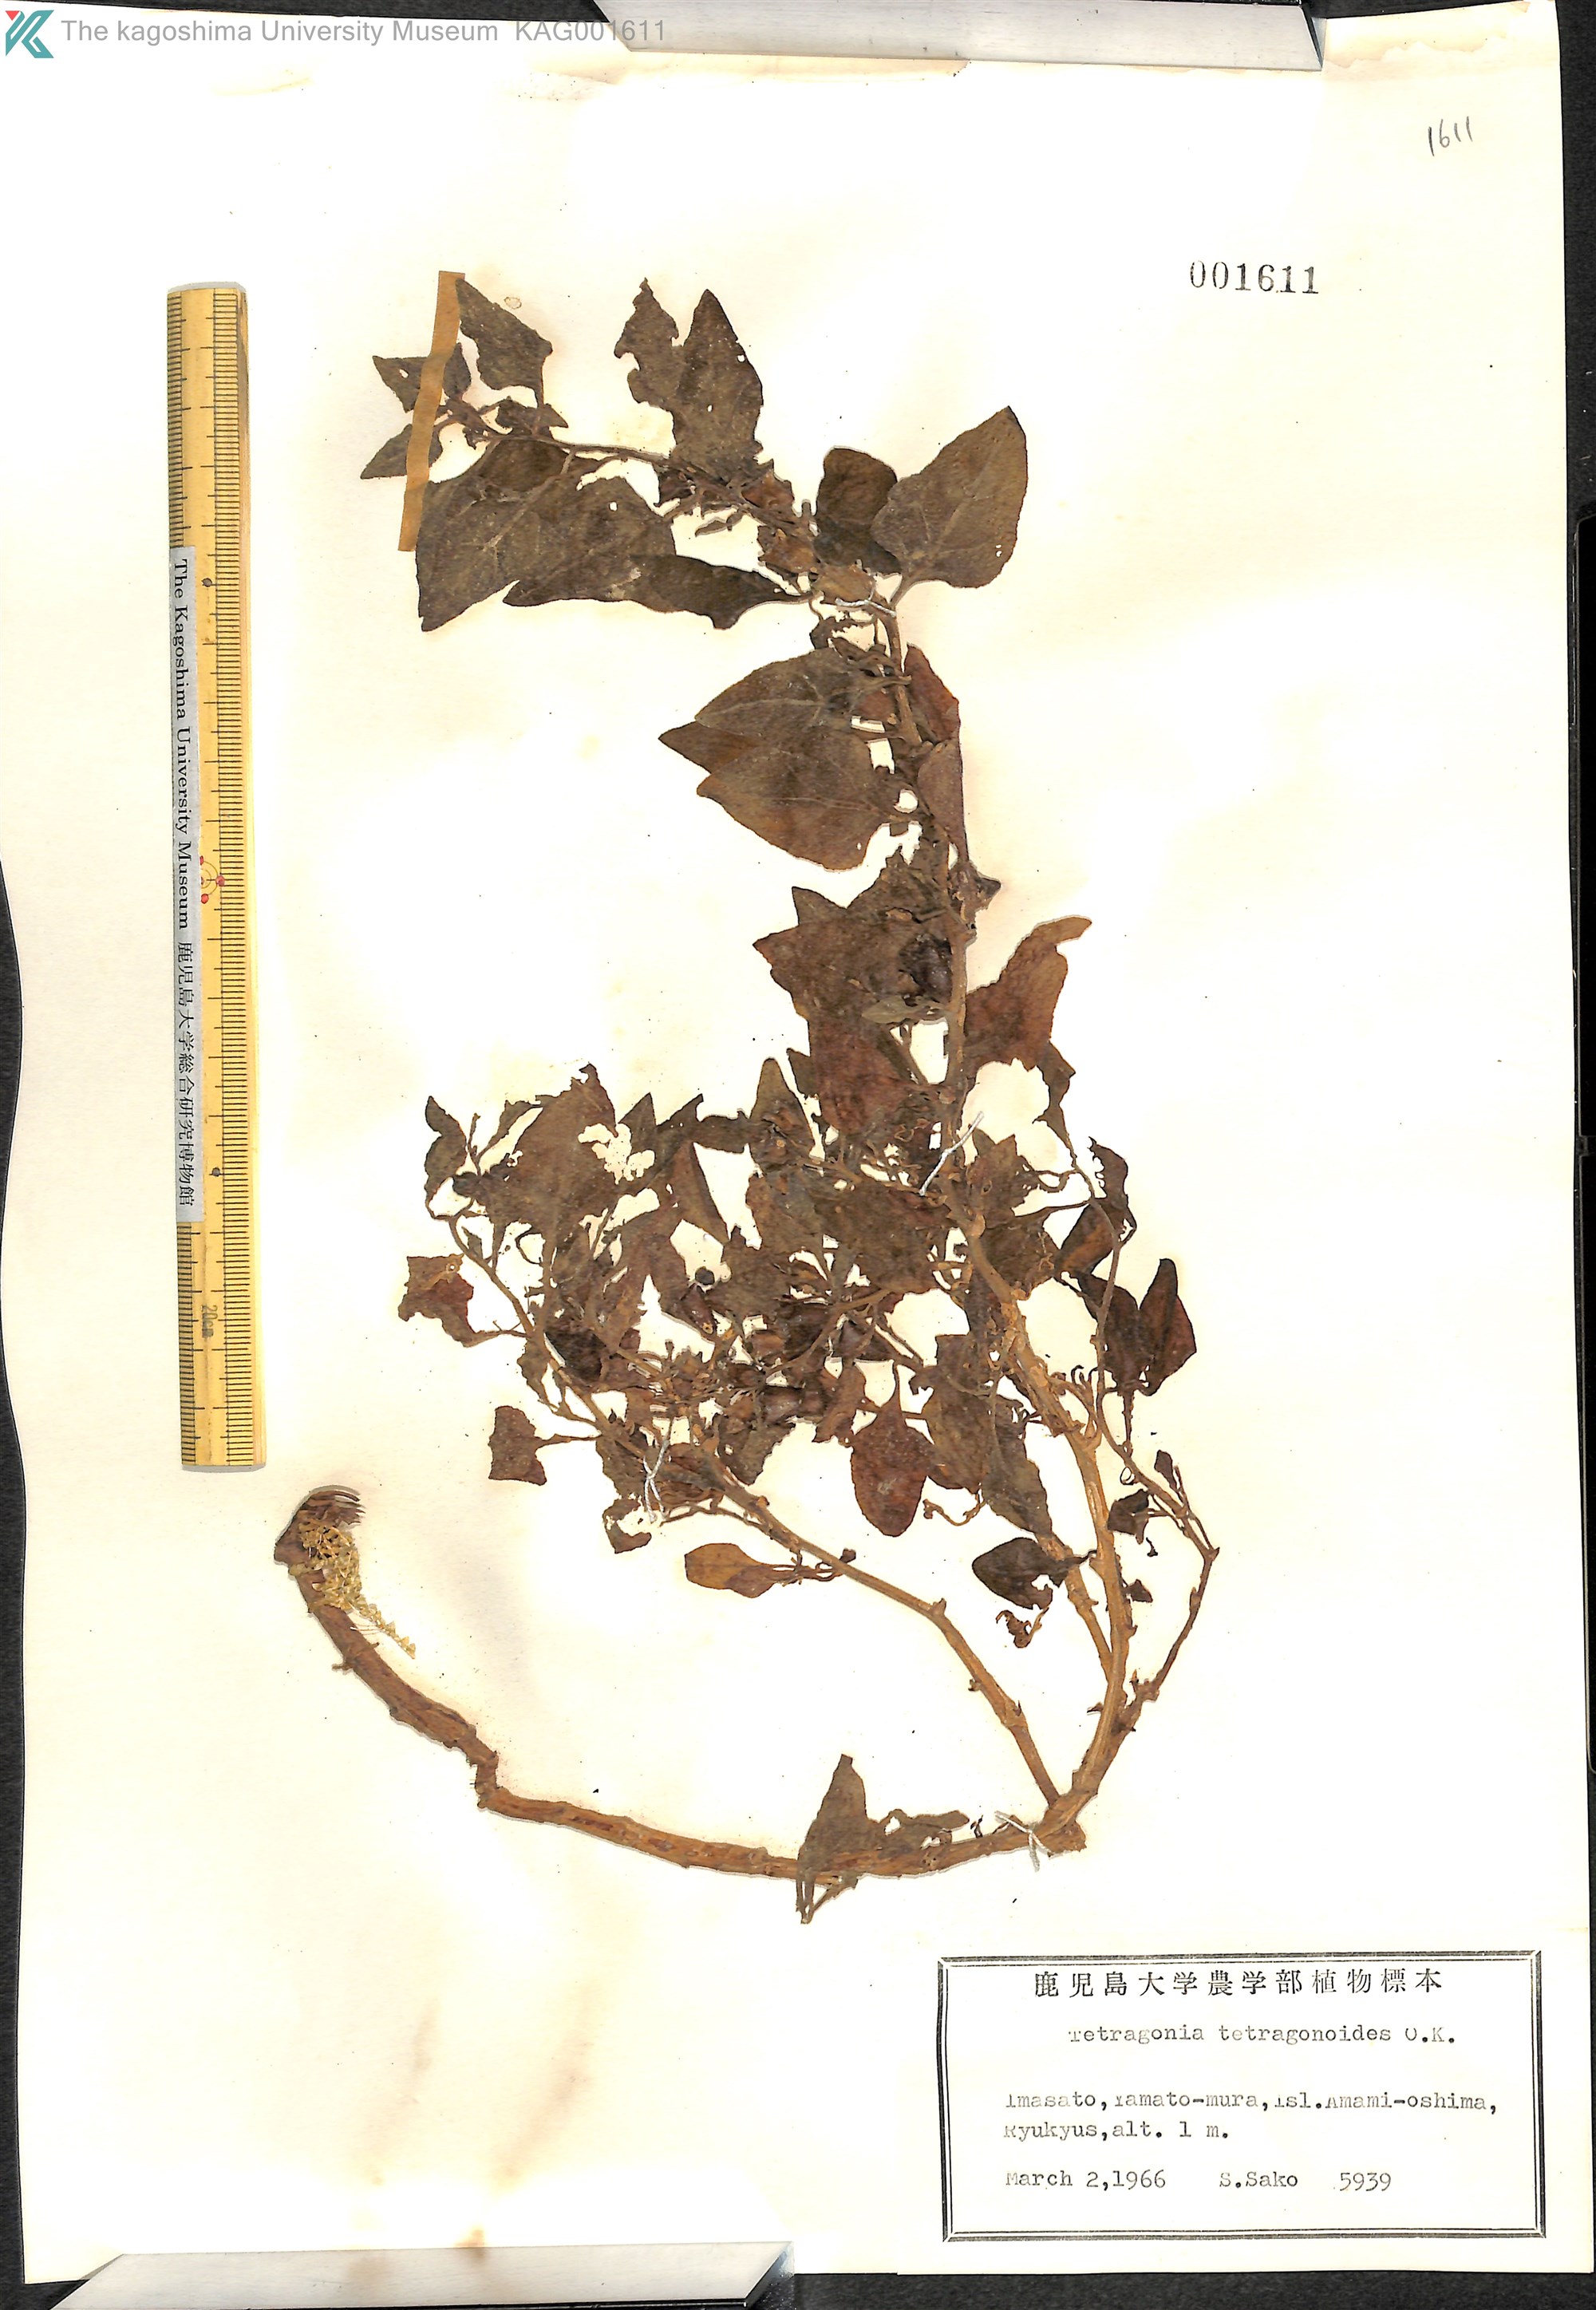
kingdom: Plantae
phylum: Tracheophyta
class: Magnoliopsida
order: Caryophyllales
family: Aizoaceae
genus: Tetragonia
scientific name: Tetragonia tetragonoides
